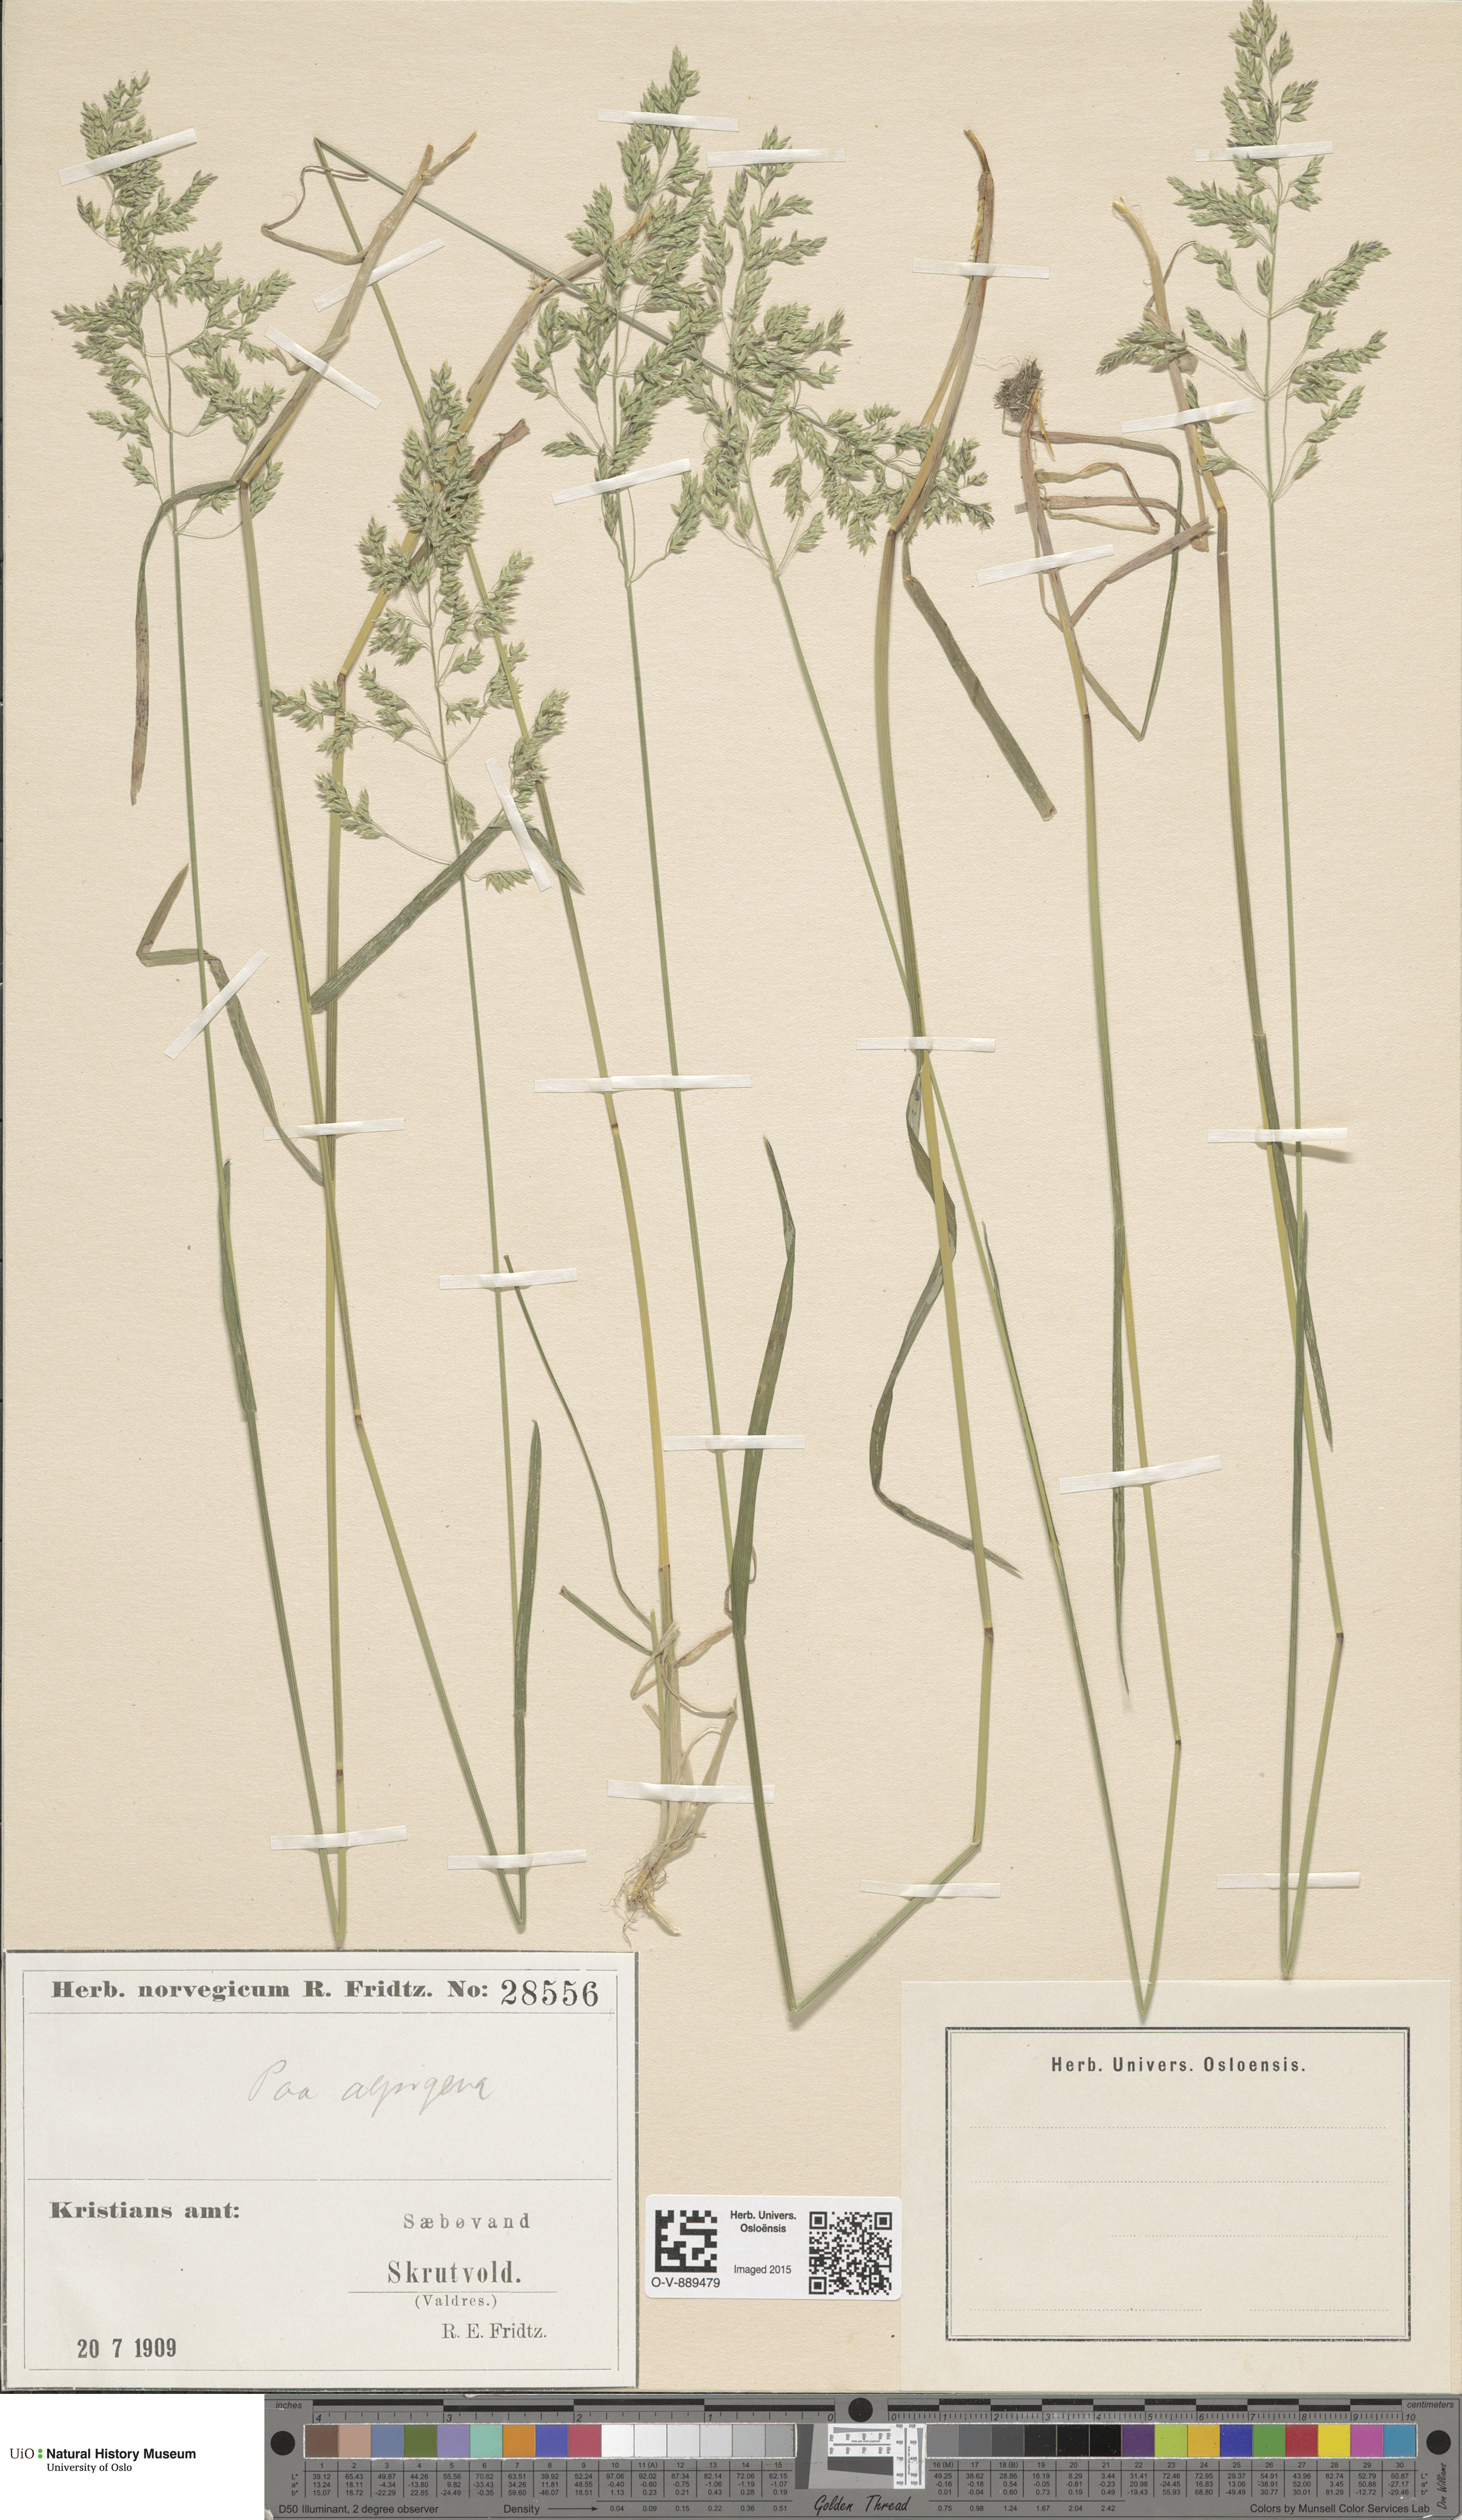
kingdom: Plantae
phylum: Tracheophyta
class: Liliopsida
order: Poales
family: Poaceae
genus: Poa
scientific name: Poa alpigena
